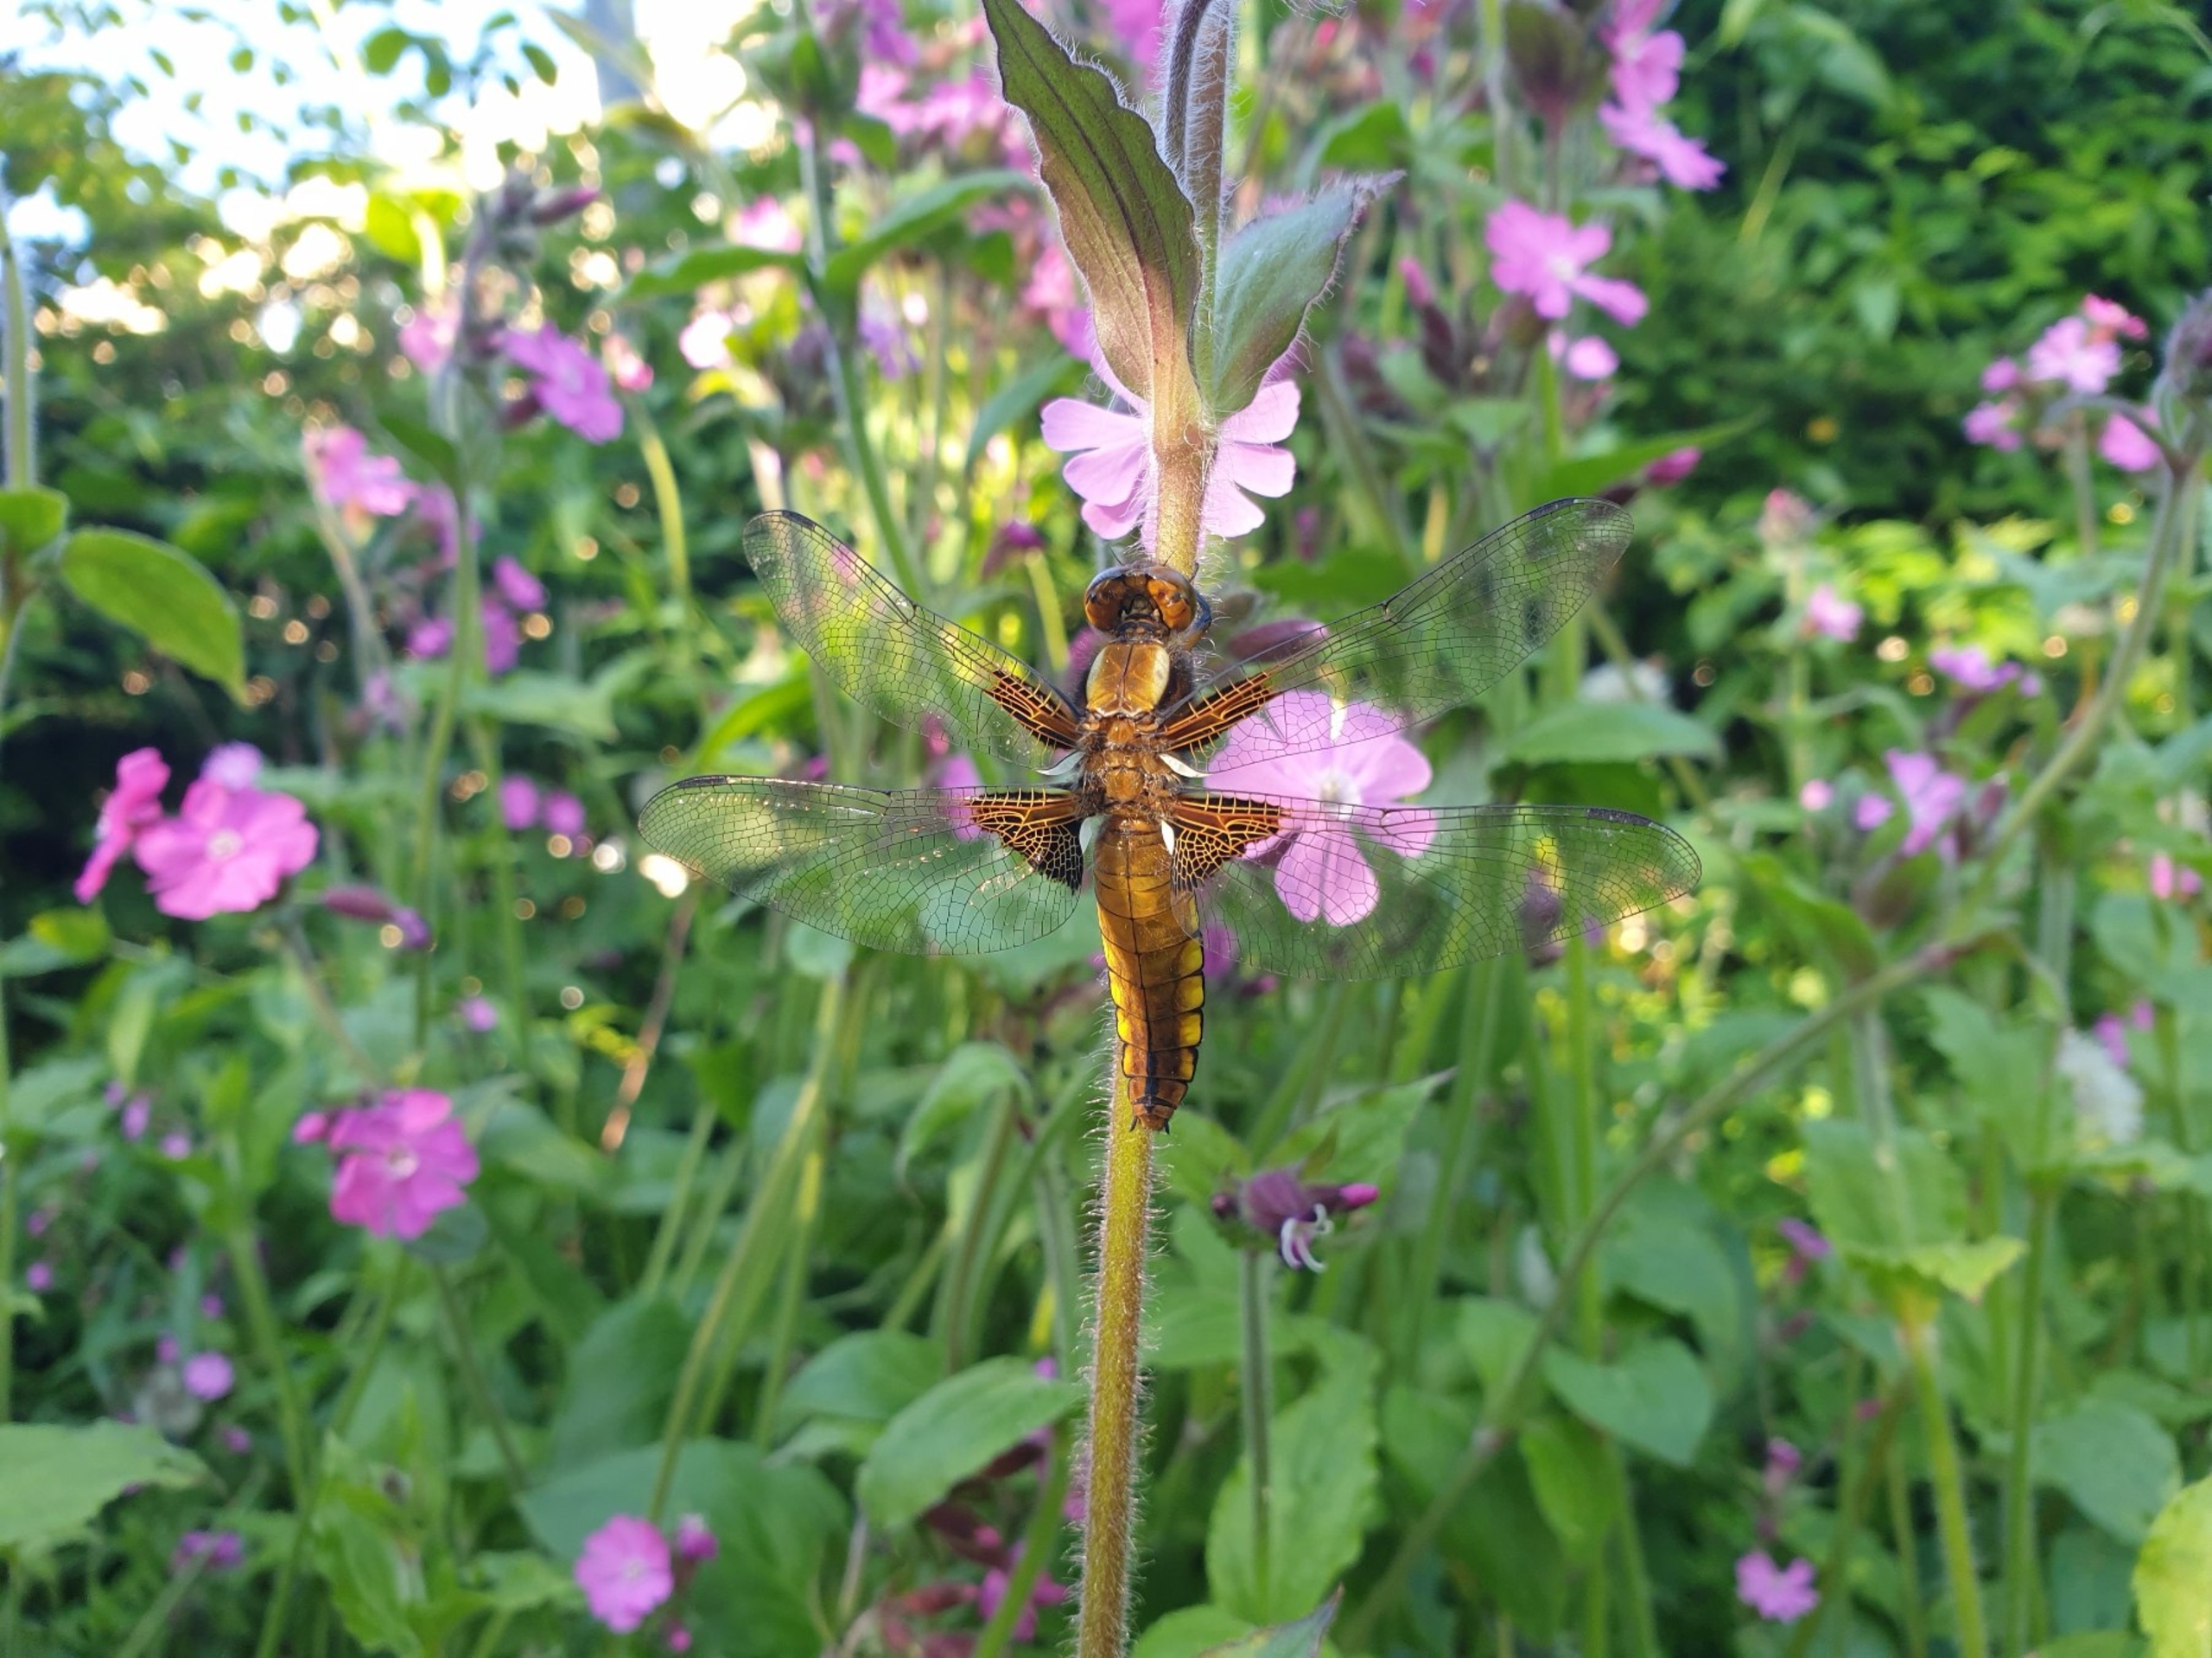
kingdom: Animalia
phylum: Arthropoda
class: Insecta
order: Odonata
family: Libellulidae
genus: Libellula
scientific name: Libellula depressa
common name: Blå libel
